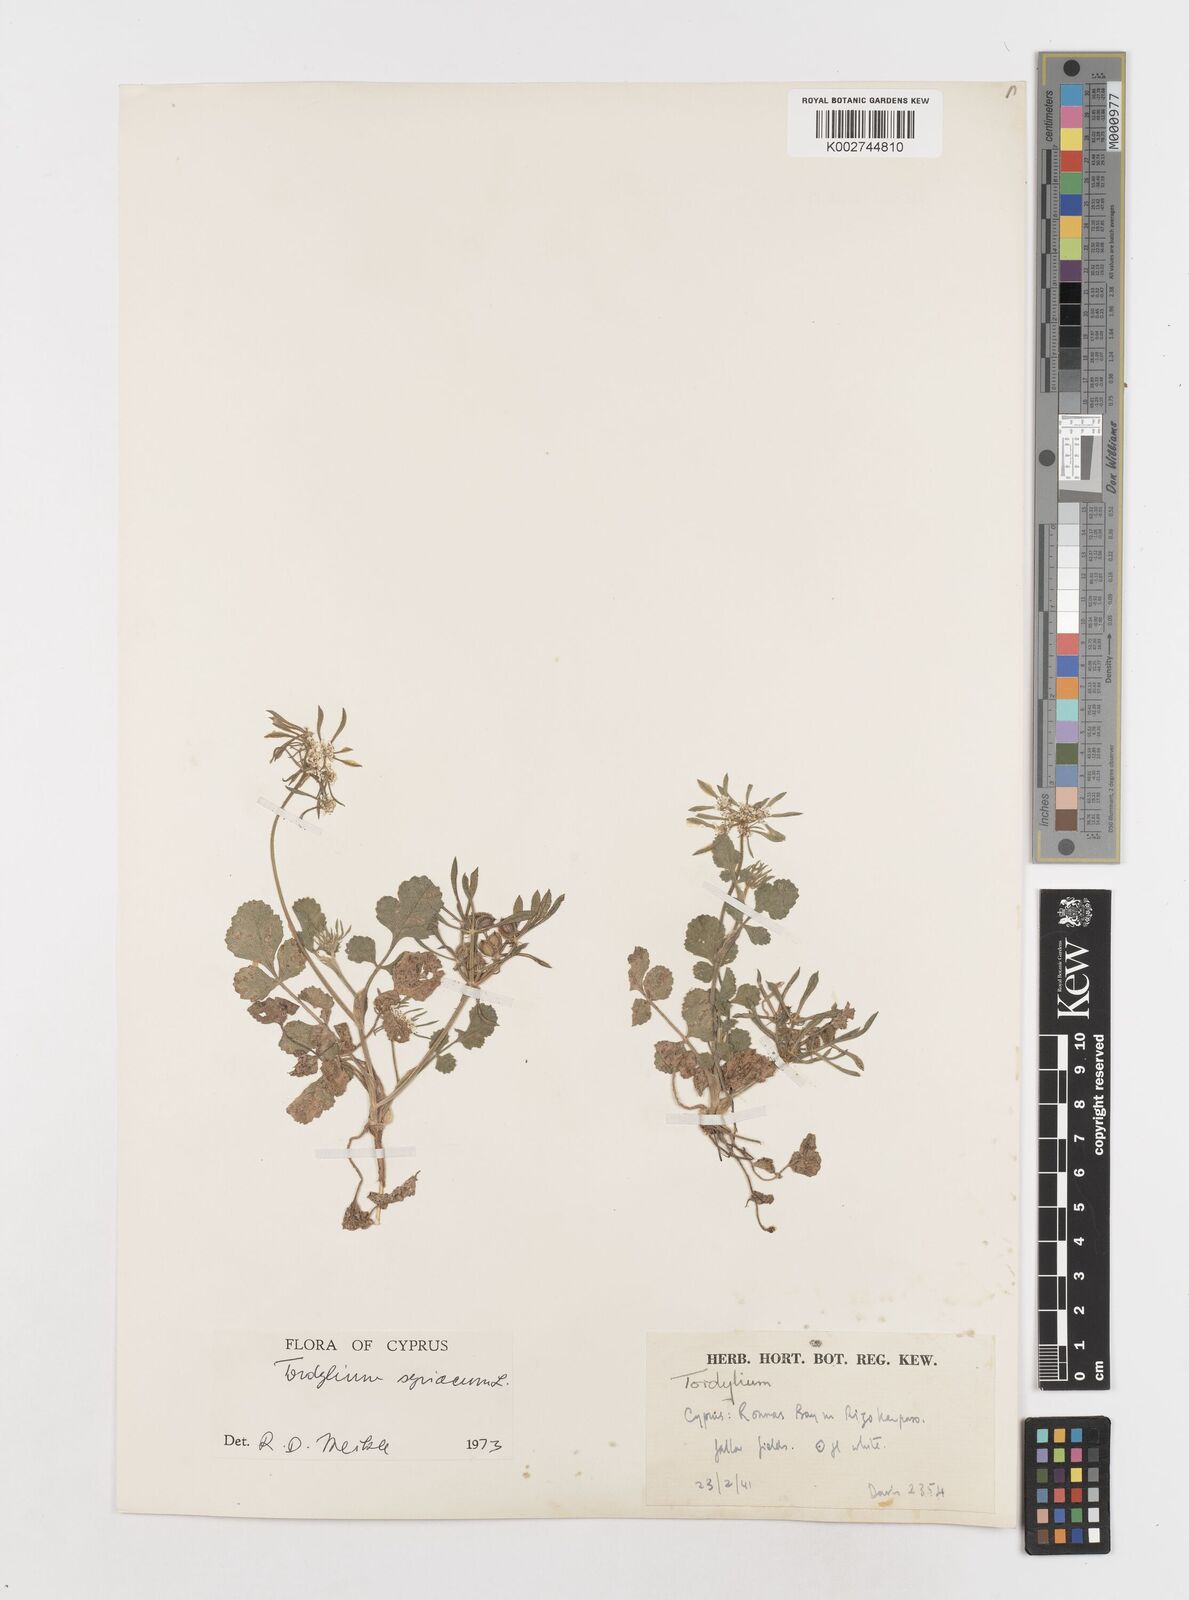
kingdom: Plantae
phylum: Tracheophyta
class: Magnoliopsida
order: Apiales
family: Apiaceae
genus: Tordylium
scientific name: Tordylium syriacum
